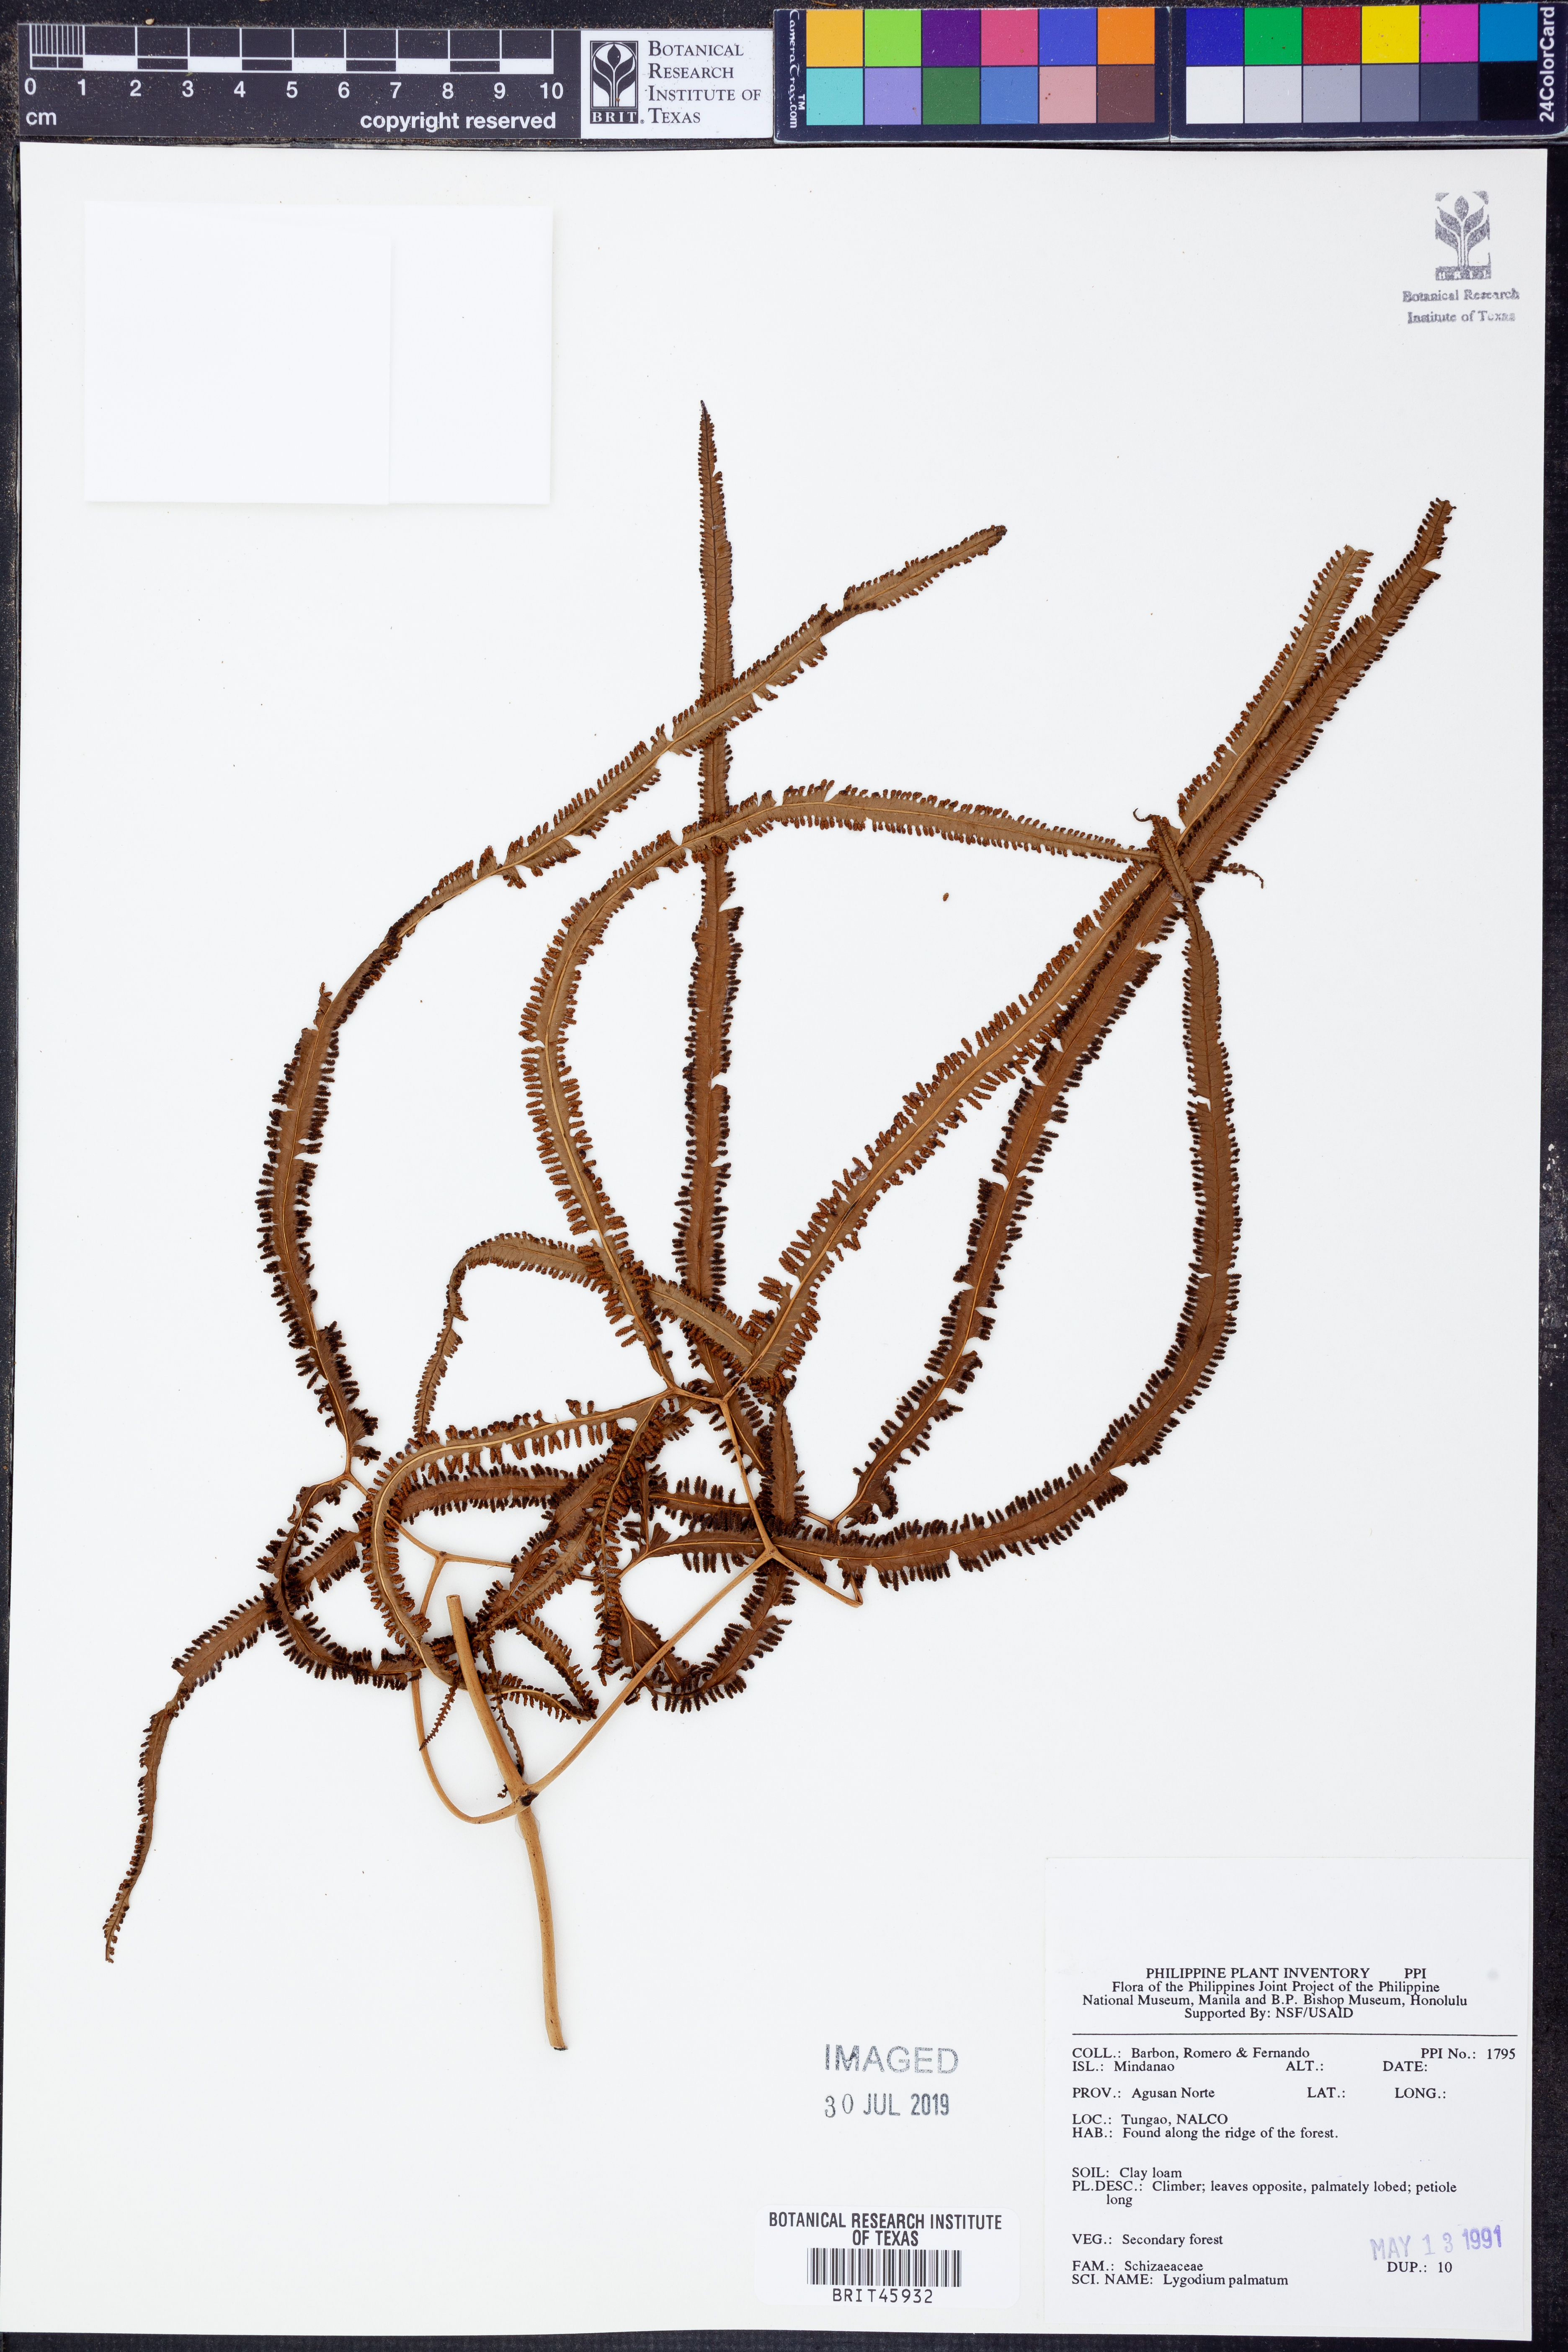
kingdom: Plantae
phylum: Tracheophyta
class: Polypodiopsida
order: Schizaeales
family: Lygodiaceae
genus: Lygodium
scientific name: Lygodium palmatum
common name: American climbing fern
